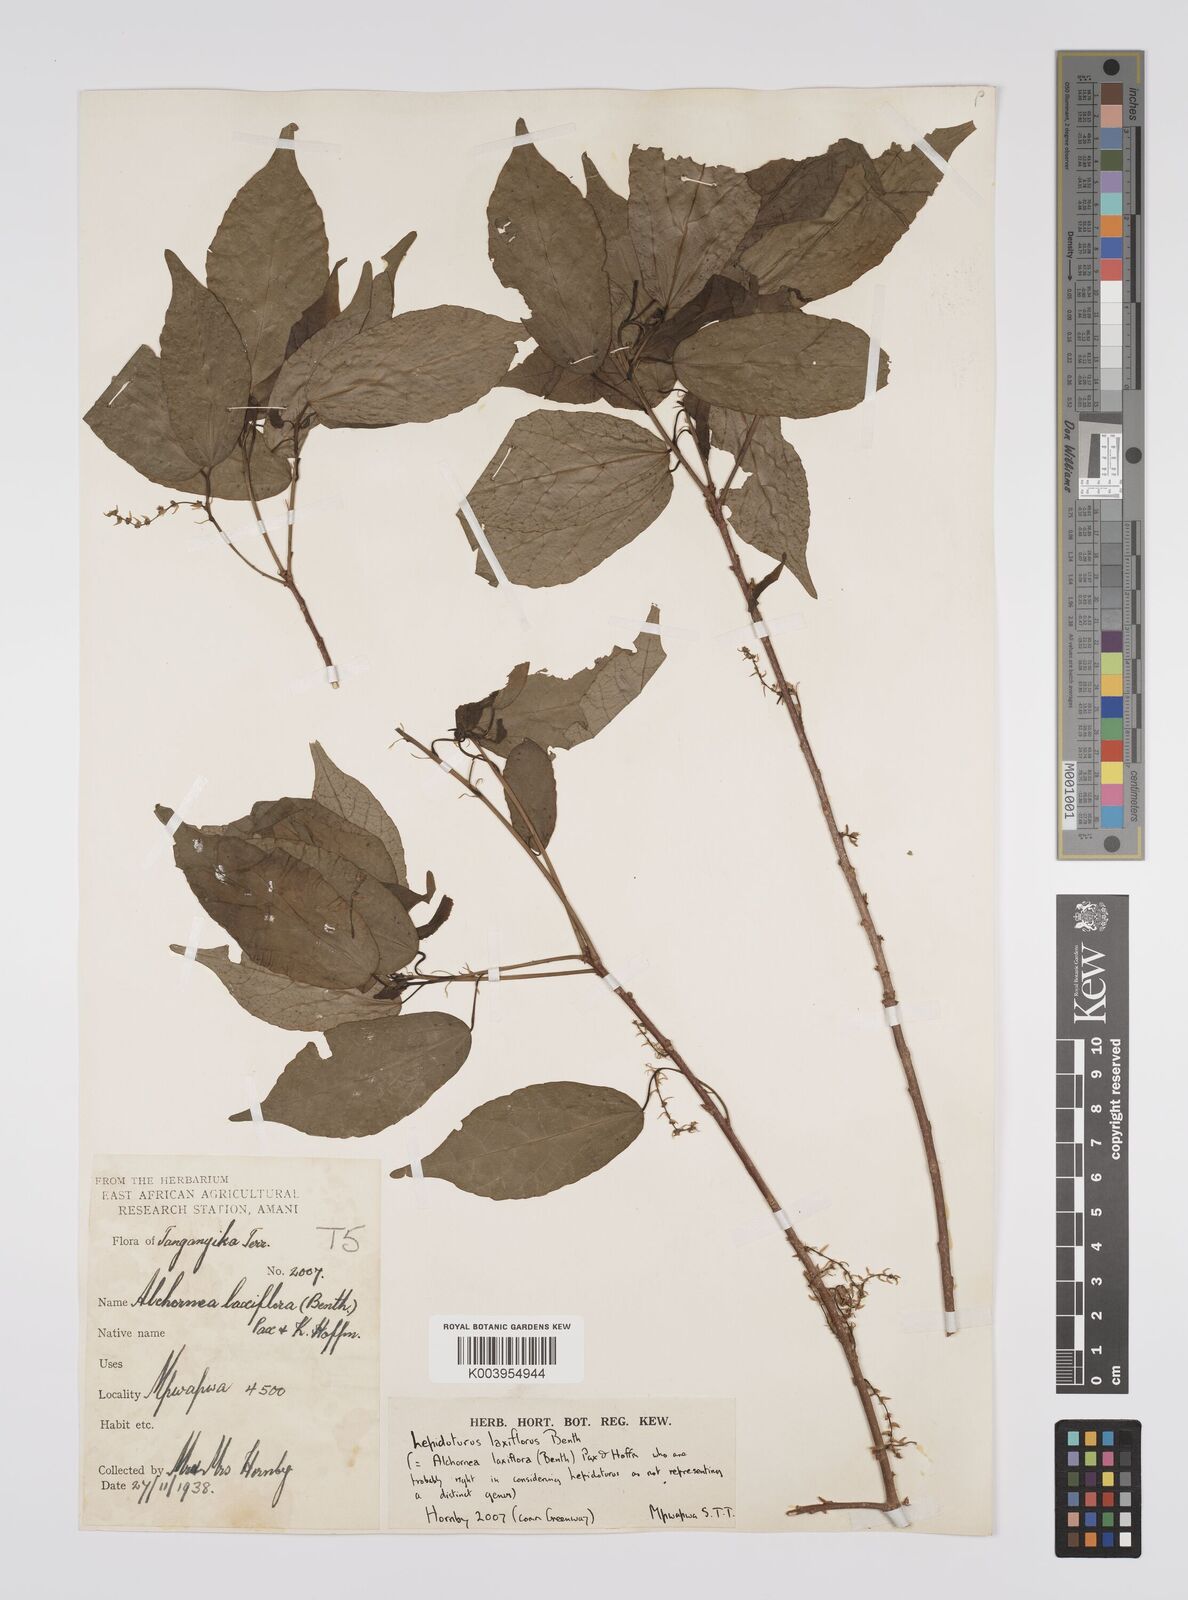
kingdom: Plantae
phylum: Tracheophyta
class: Magnoliopsida
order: Malpighiales
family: Euphorbiaceae
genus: Alchornea
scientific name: Alchornea laxiflora
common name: Lowveld bead-string
